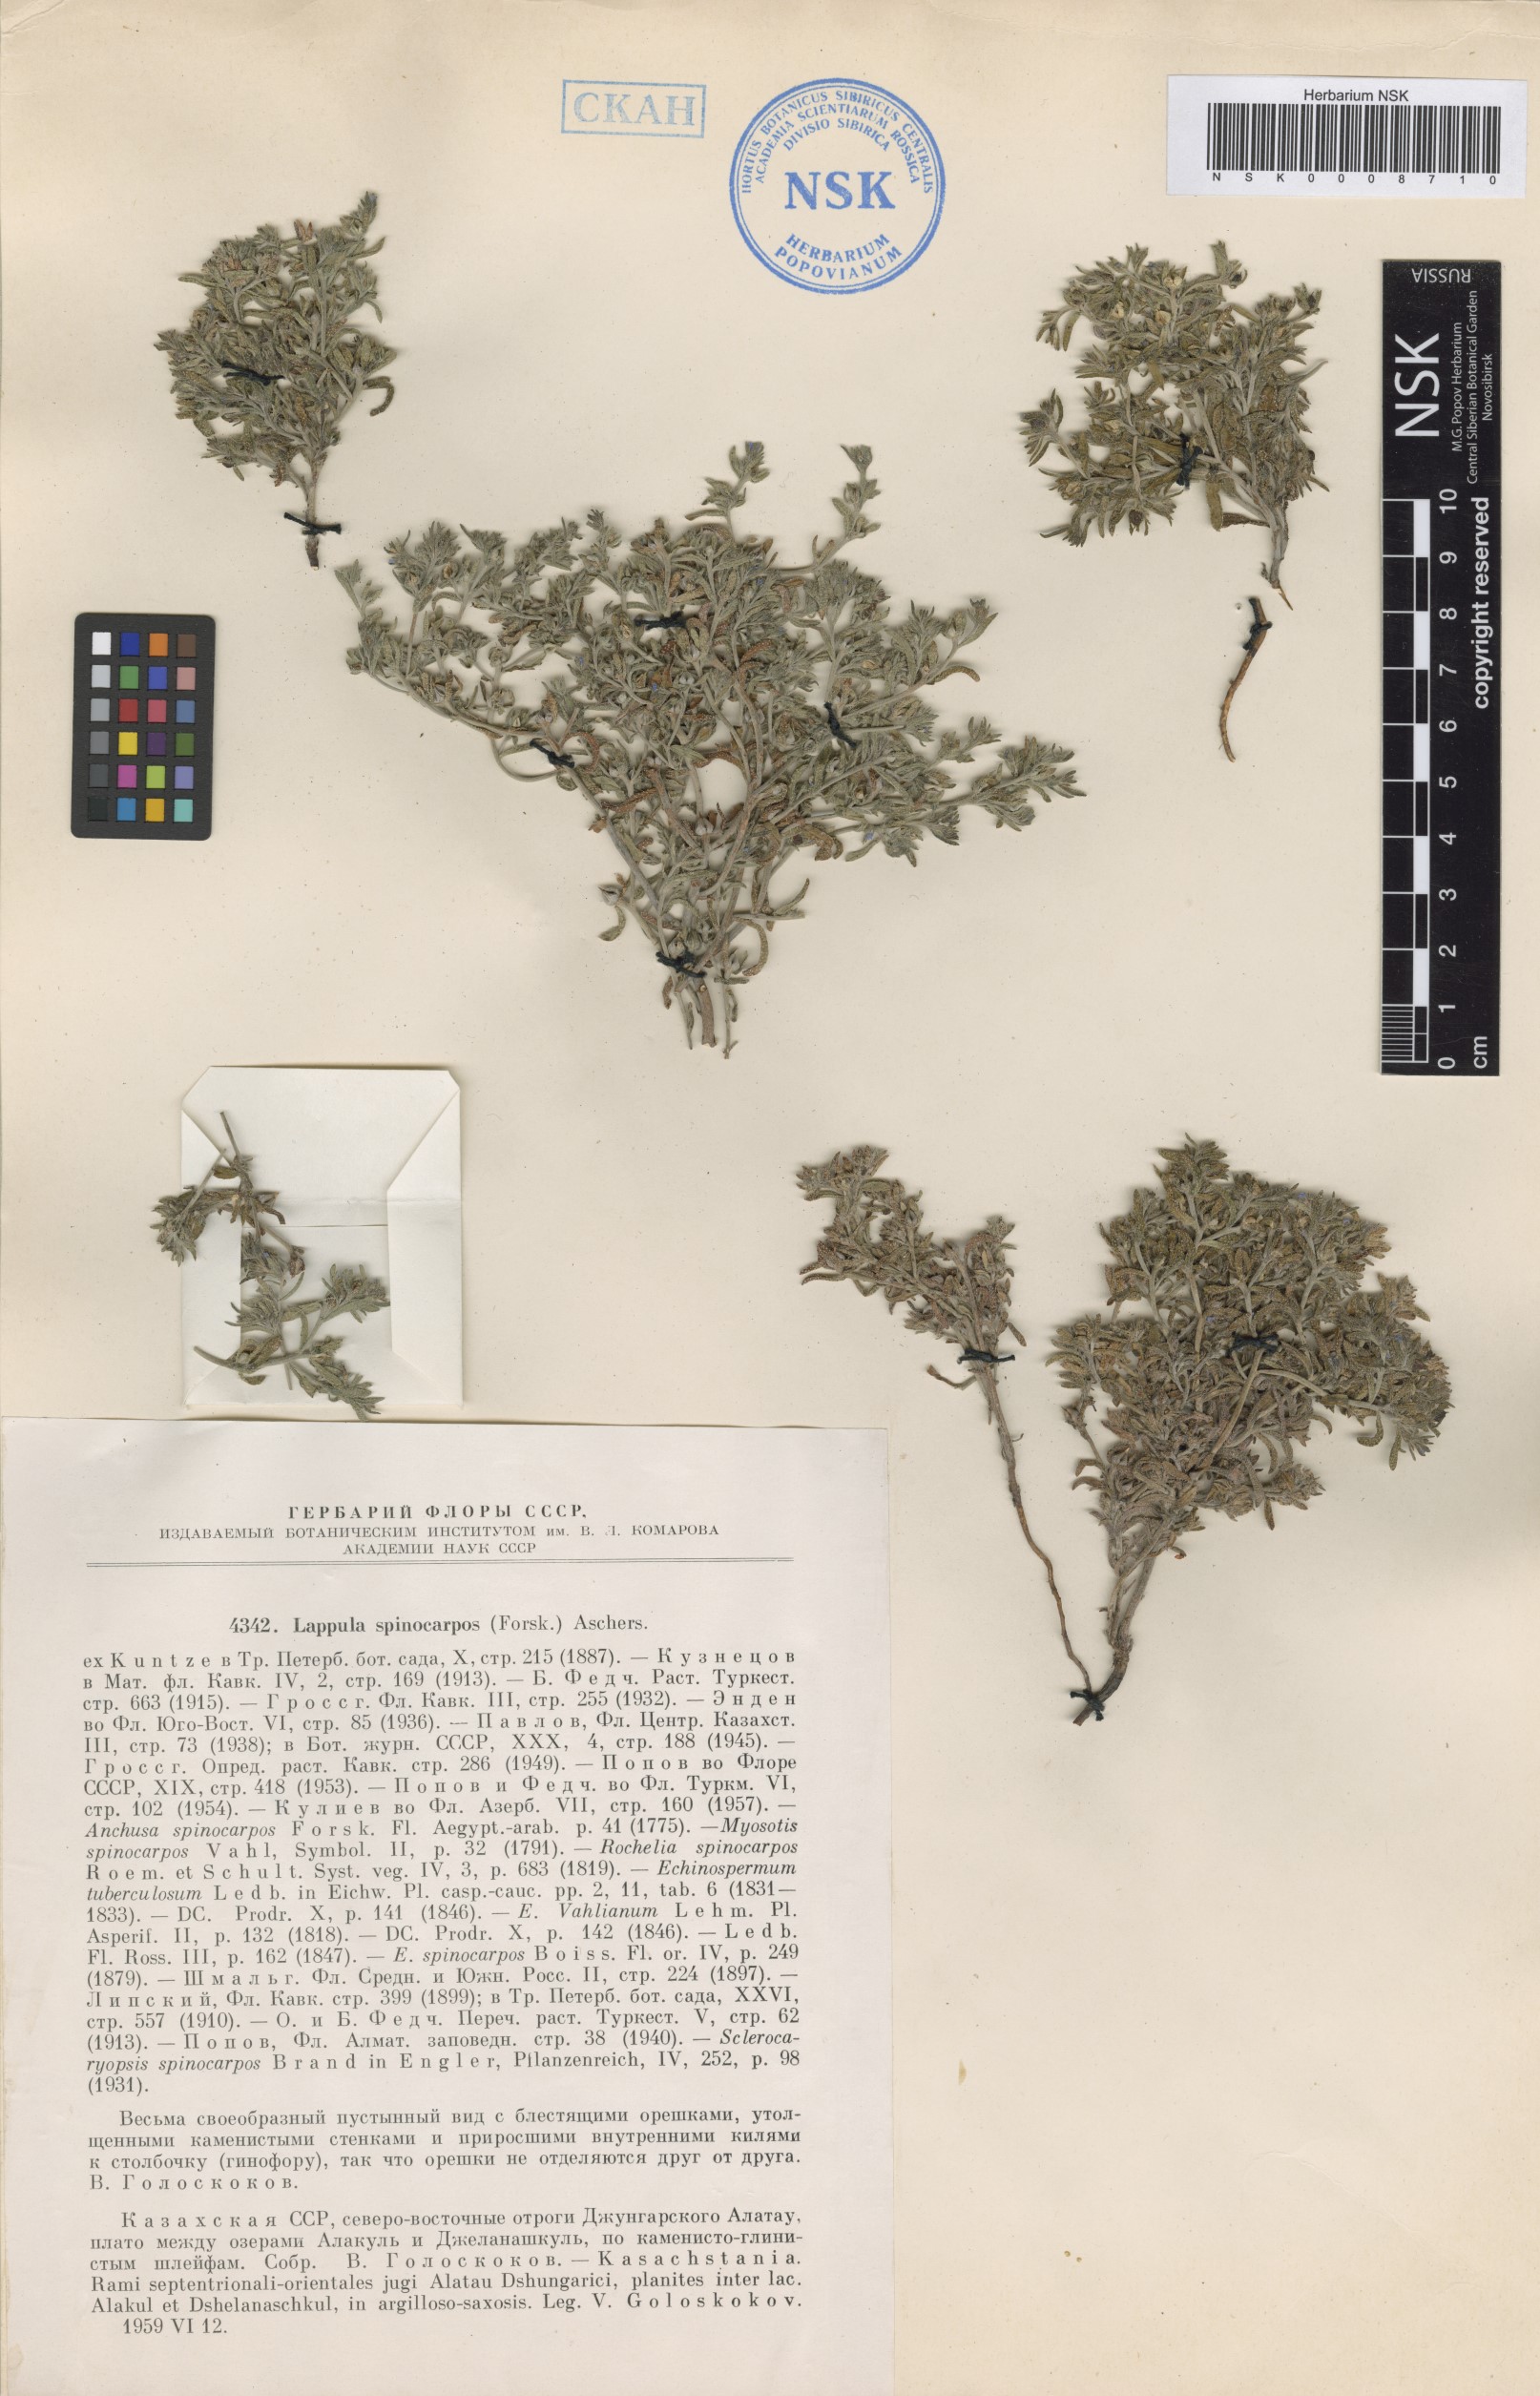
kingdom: Plantae
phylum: Tracheophyta
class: Magnoliopsida
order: Boraginales
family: Boraginaceae
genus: Lappula
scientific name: Lappula spinocarpos
